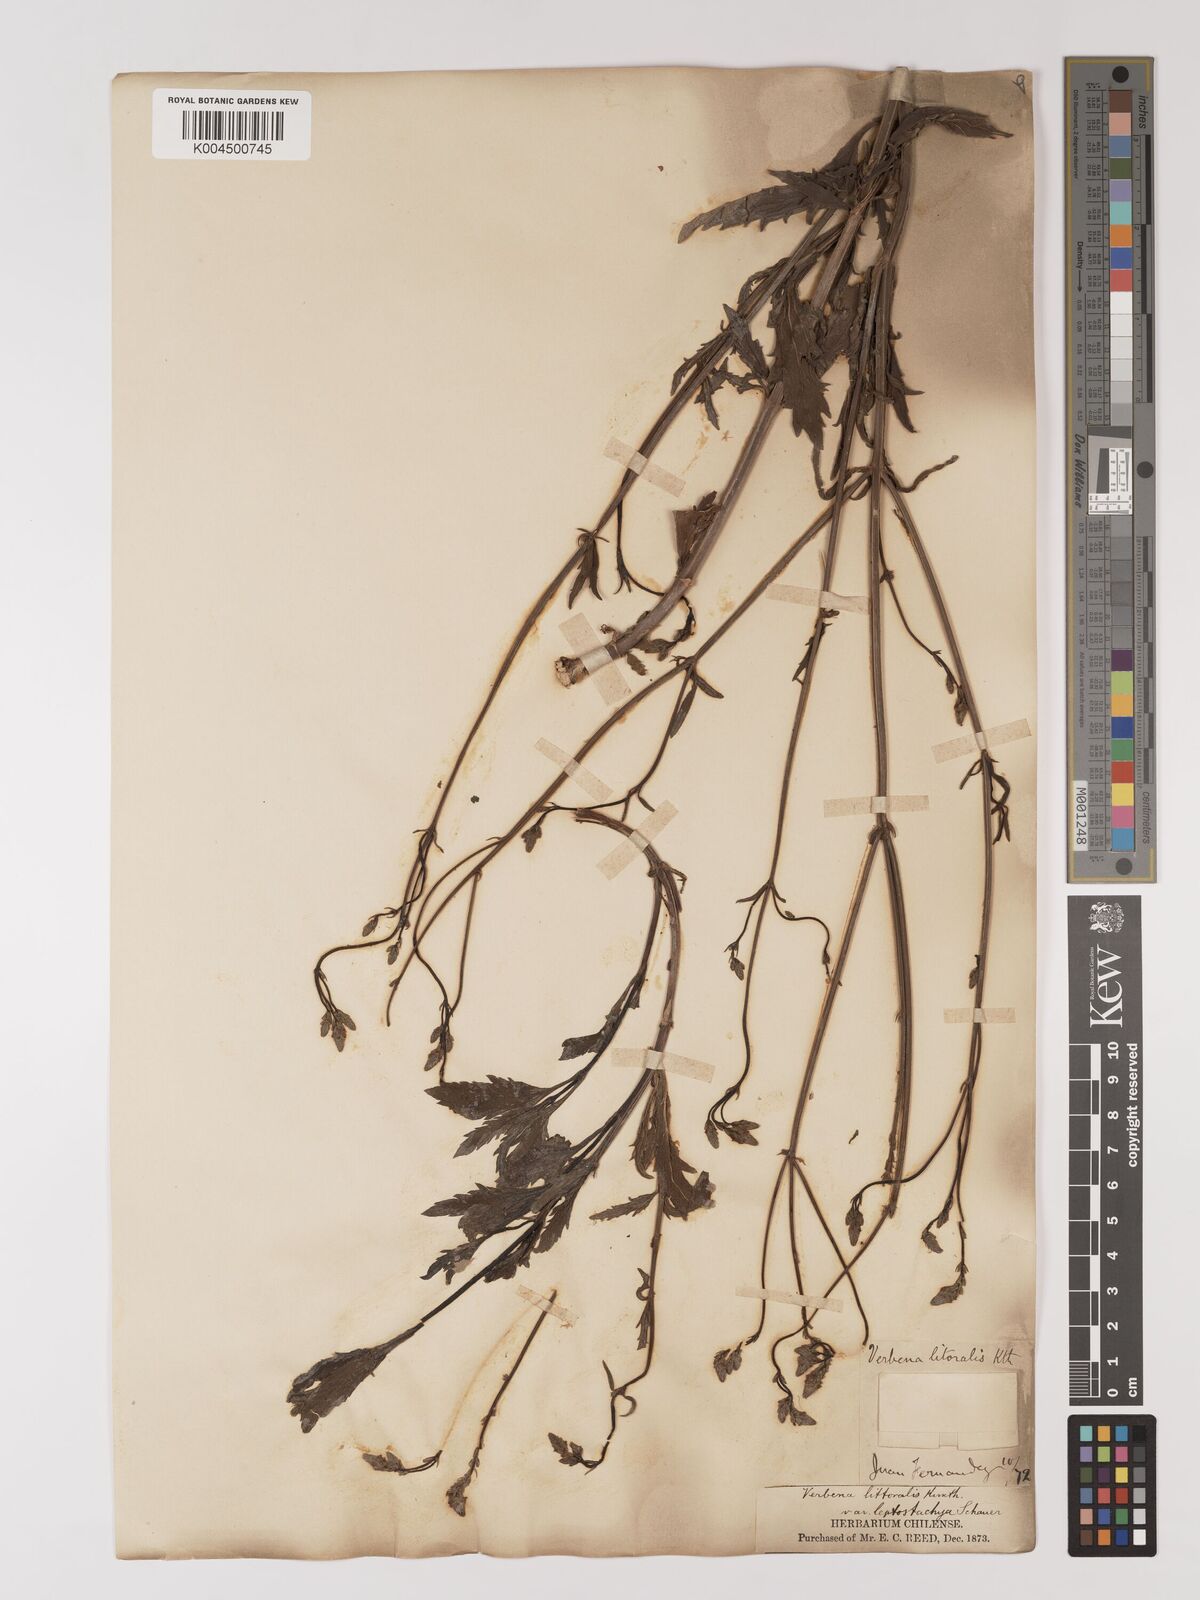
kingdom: Plantae
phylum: Tracheophyta
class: Magnoliopsida
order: Lamiales
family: Verbenaceae
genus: Verbena
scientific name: Verbena litoralis
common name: Seashore vervain
